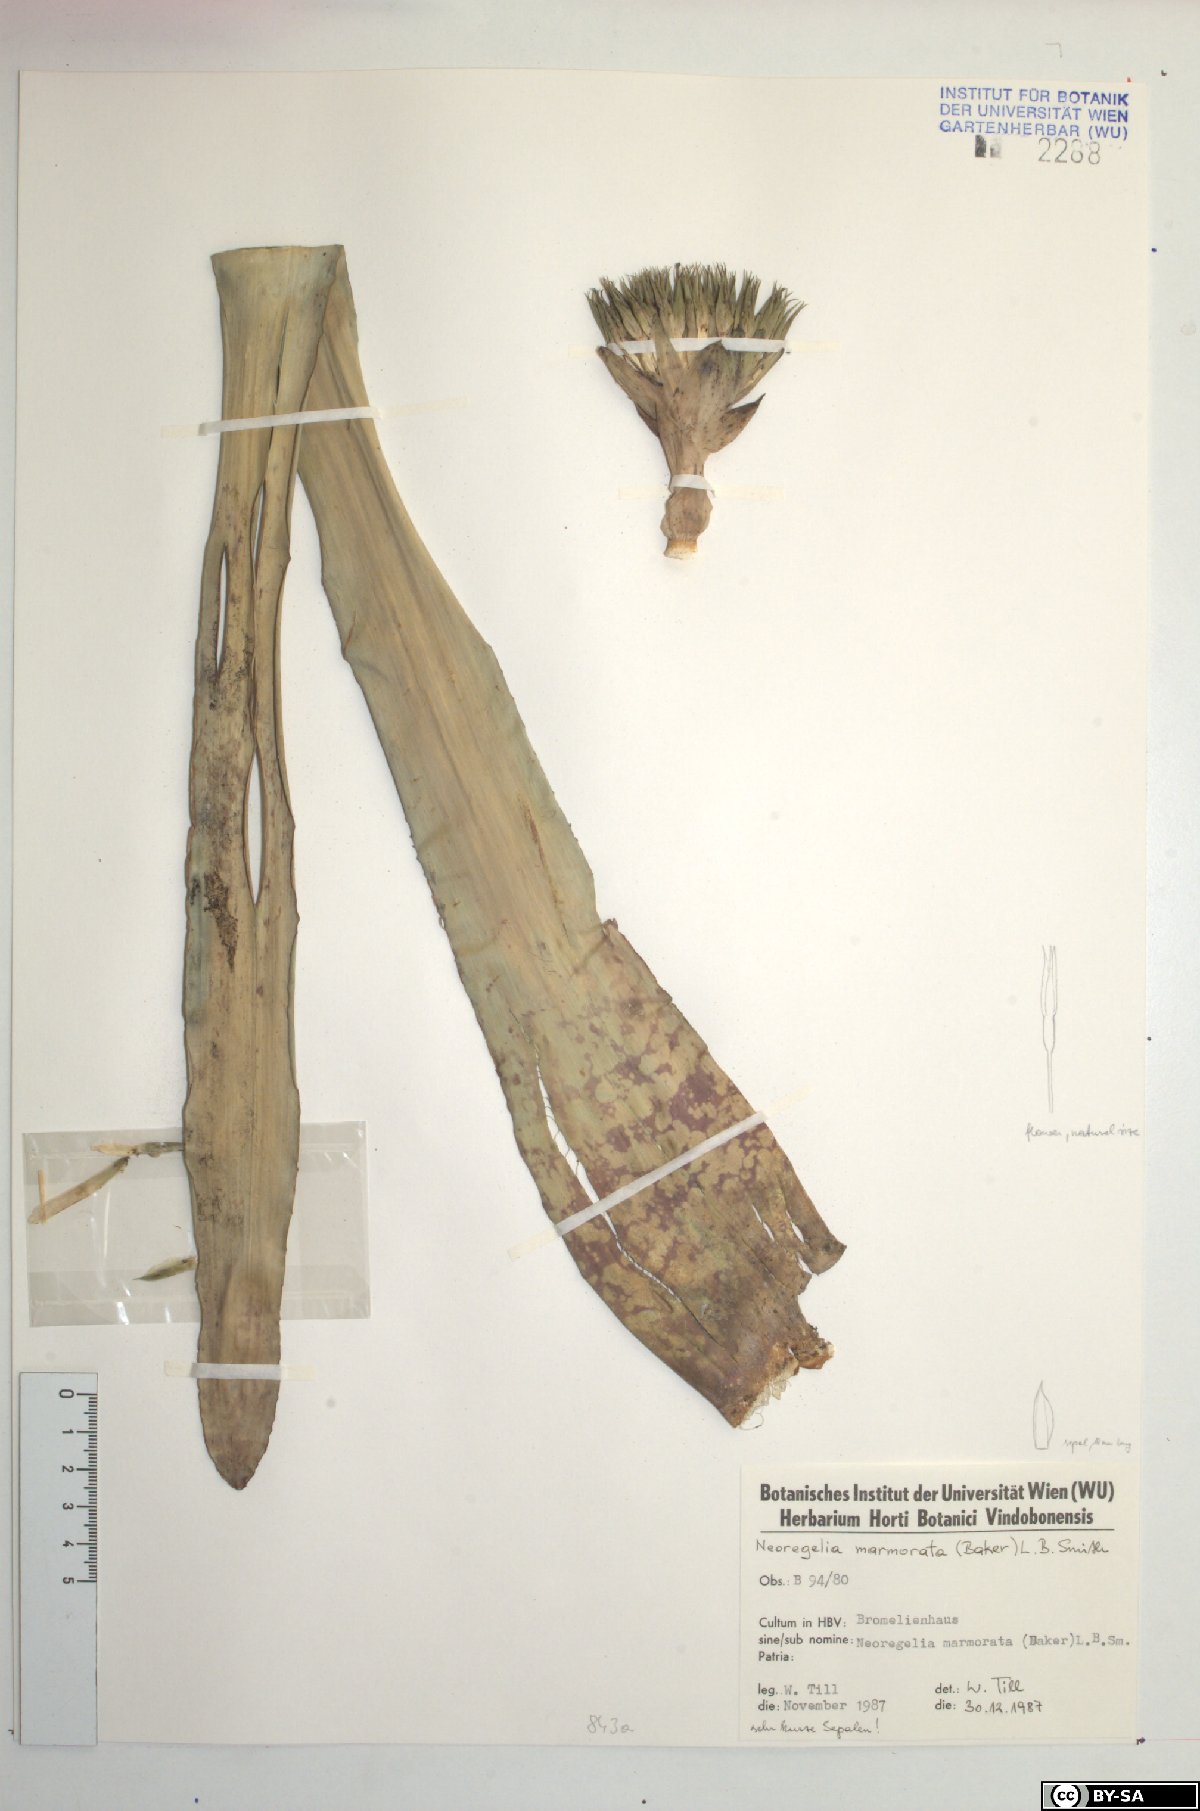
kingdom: Plantae
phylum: Tracheophyta
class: Liliopsida
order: Poales
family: Bromeliaceae
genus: Neoregelia
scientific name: Neoregelia marmorata
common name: Marbleplant
